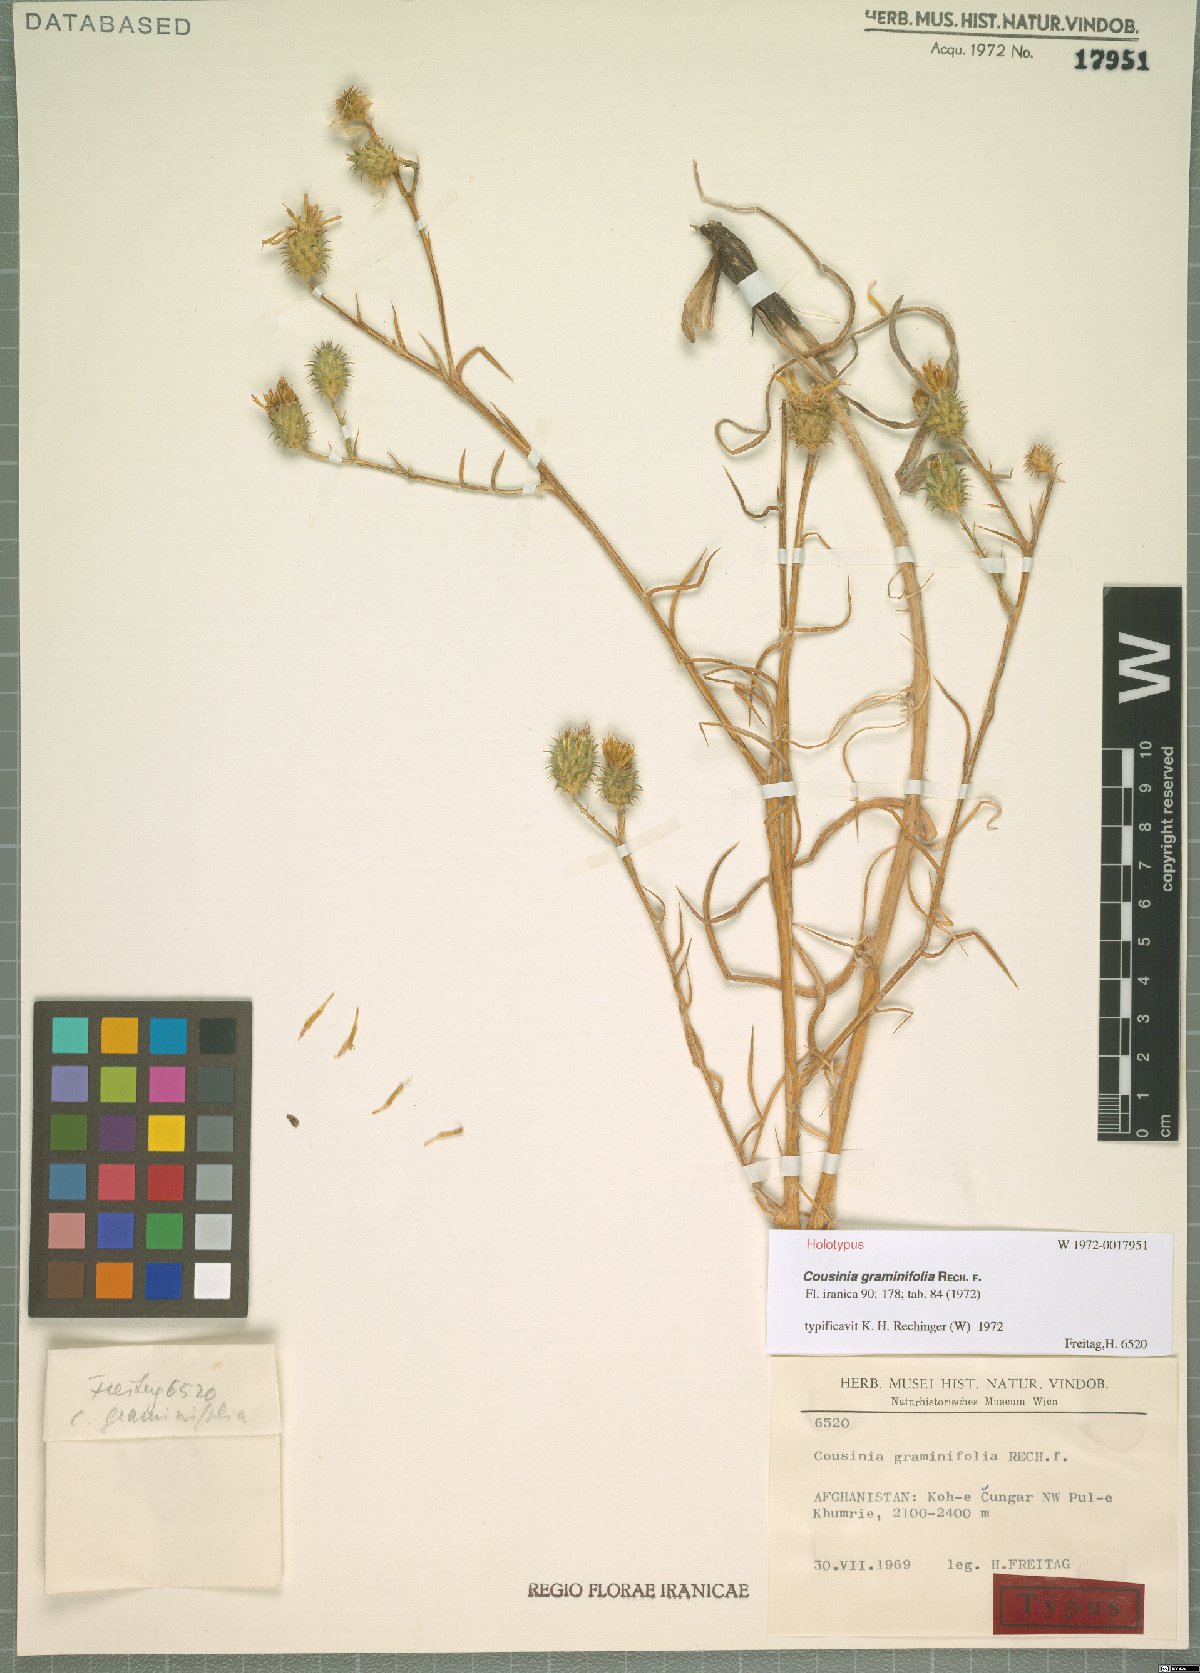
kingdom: Plantae
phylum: Tracheophyta
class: Magnoliopsida
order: Asterales
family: Asteraceae
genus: Cousinia
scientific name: Cousinia graminifolia
